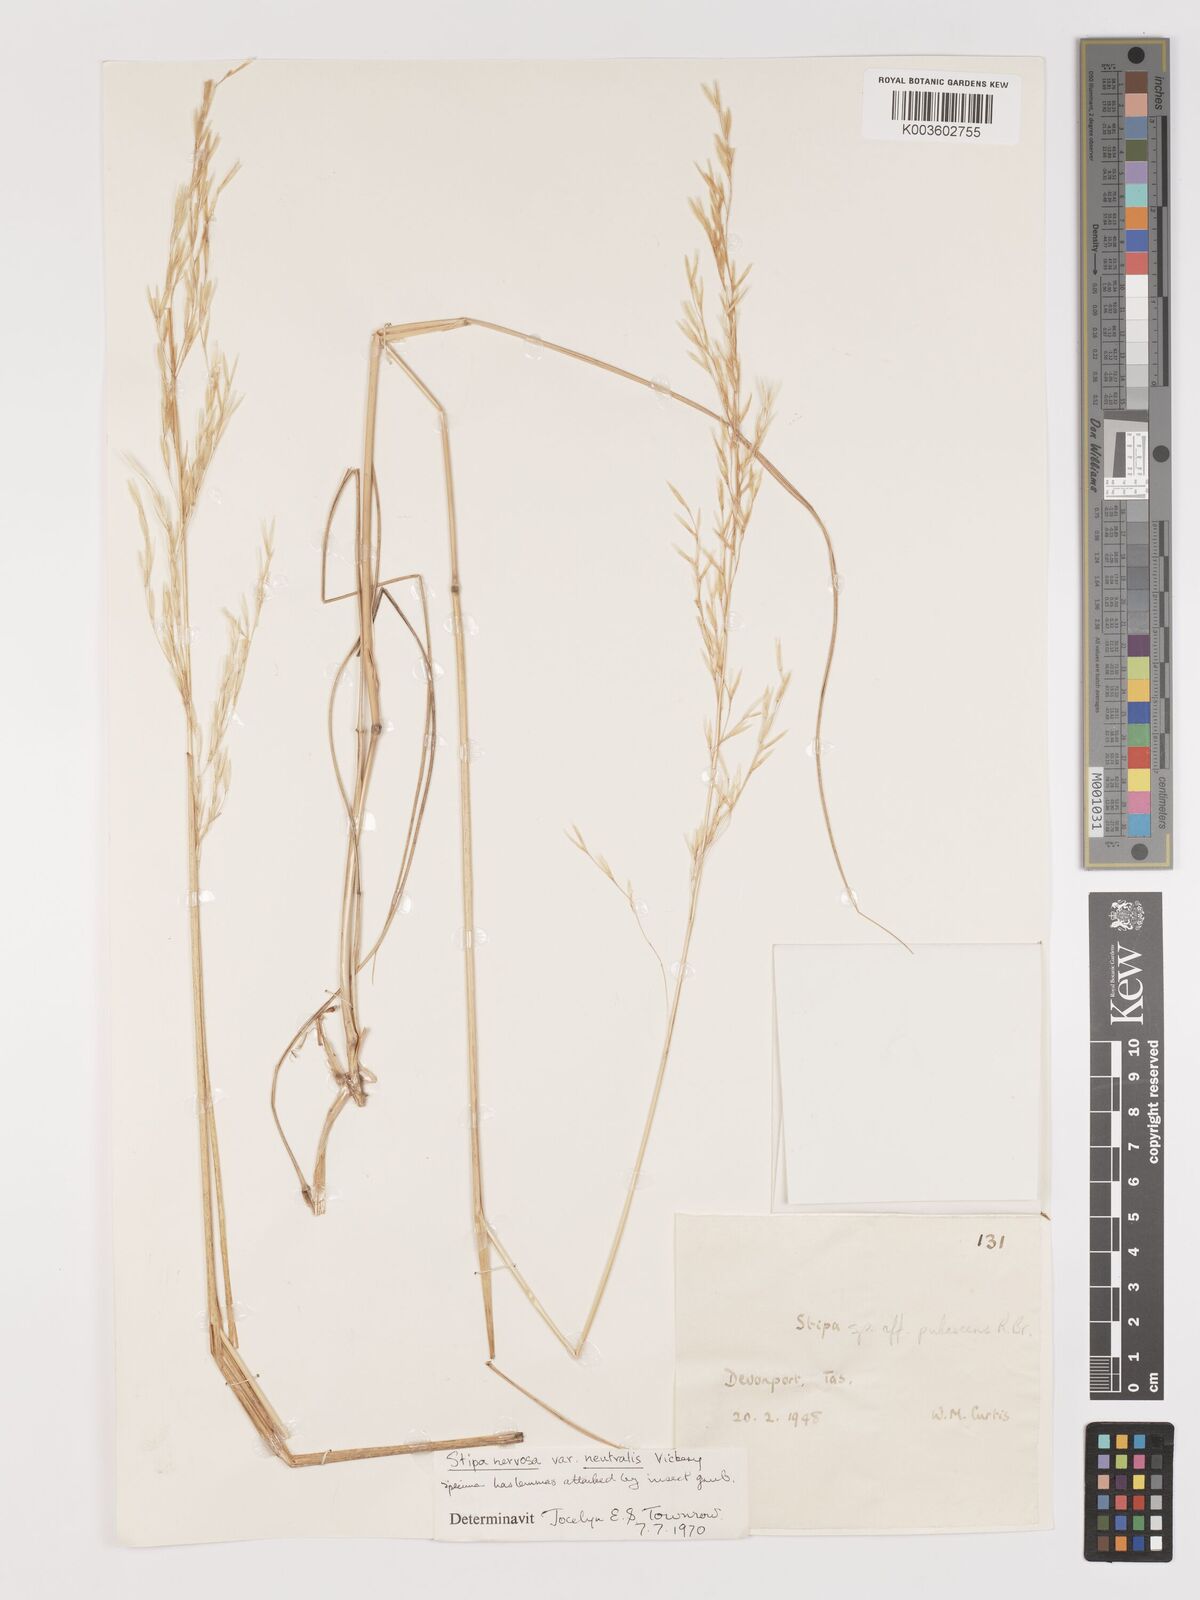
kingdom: Plantae
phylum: Tracheophyta
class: Liliopsida
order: Poales
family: Poaceae
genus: Austrostipa
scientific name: Austrostipa rudis
